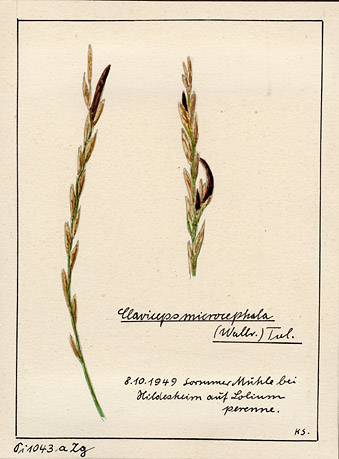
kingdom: Fungi
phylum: Ascomycota
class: Sordariomycetes
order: Hypocreales
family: Clavicipitaceae
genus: Claviceps
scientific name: Claviceps purpurea
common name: Rye ergot
